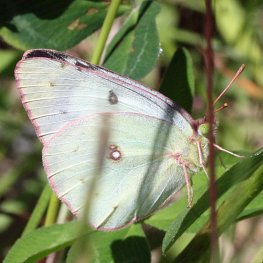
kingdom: Animalia
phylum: Arthropoda
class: Insecta
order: Lepidoptera
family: Pieridae
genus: Colias
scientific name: Colias philodice
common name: Clouded Sulphur
